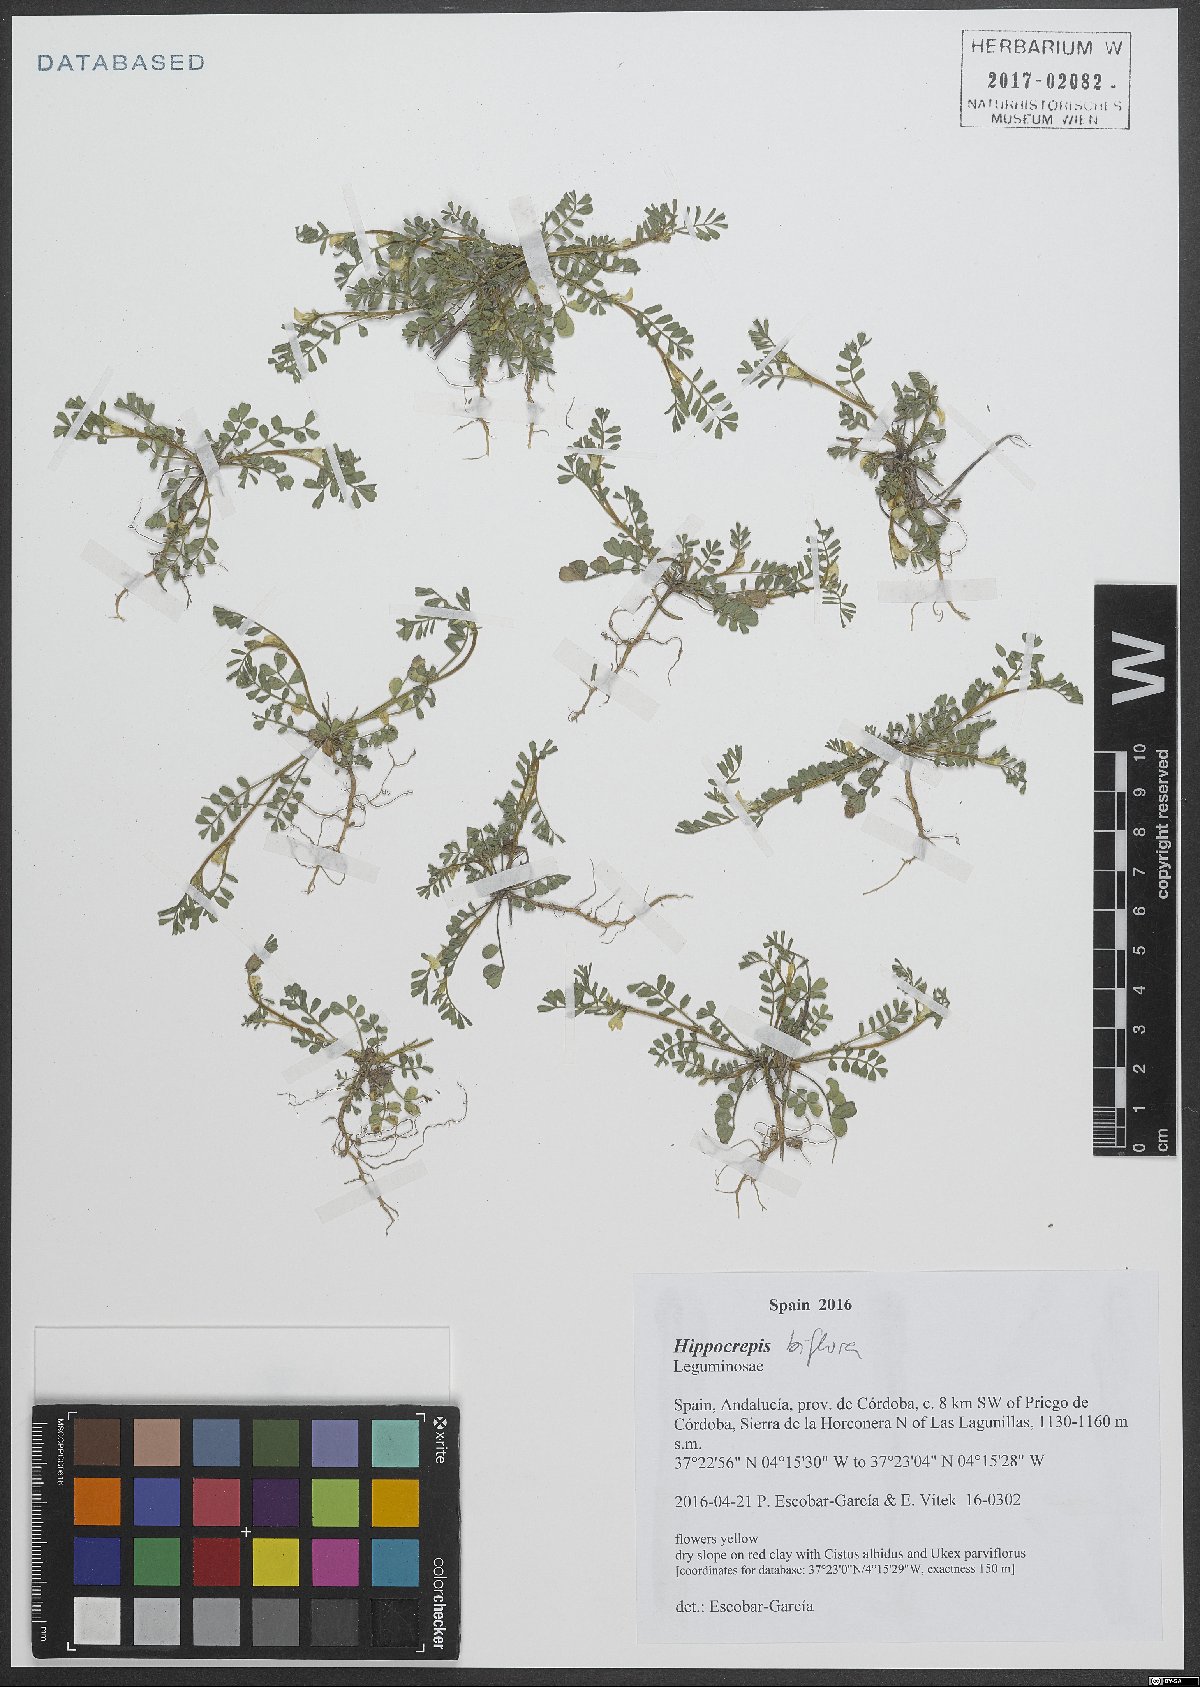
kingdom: Plantae
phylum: Tracheophyta
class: Magnoliopsida
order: Fabales
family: Fabaceae
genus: Hippocrepis
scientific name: Hippocrepis biflora
